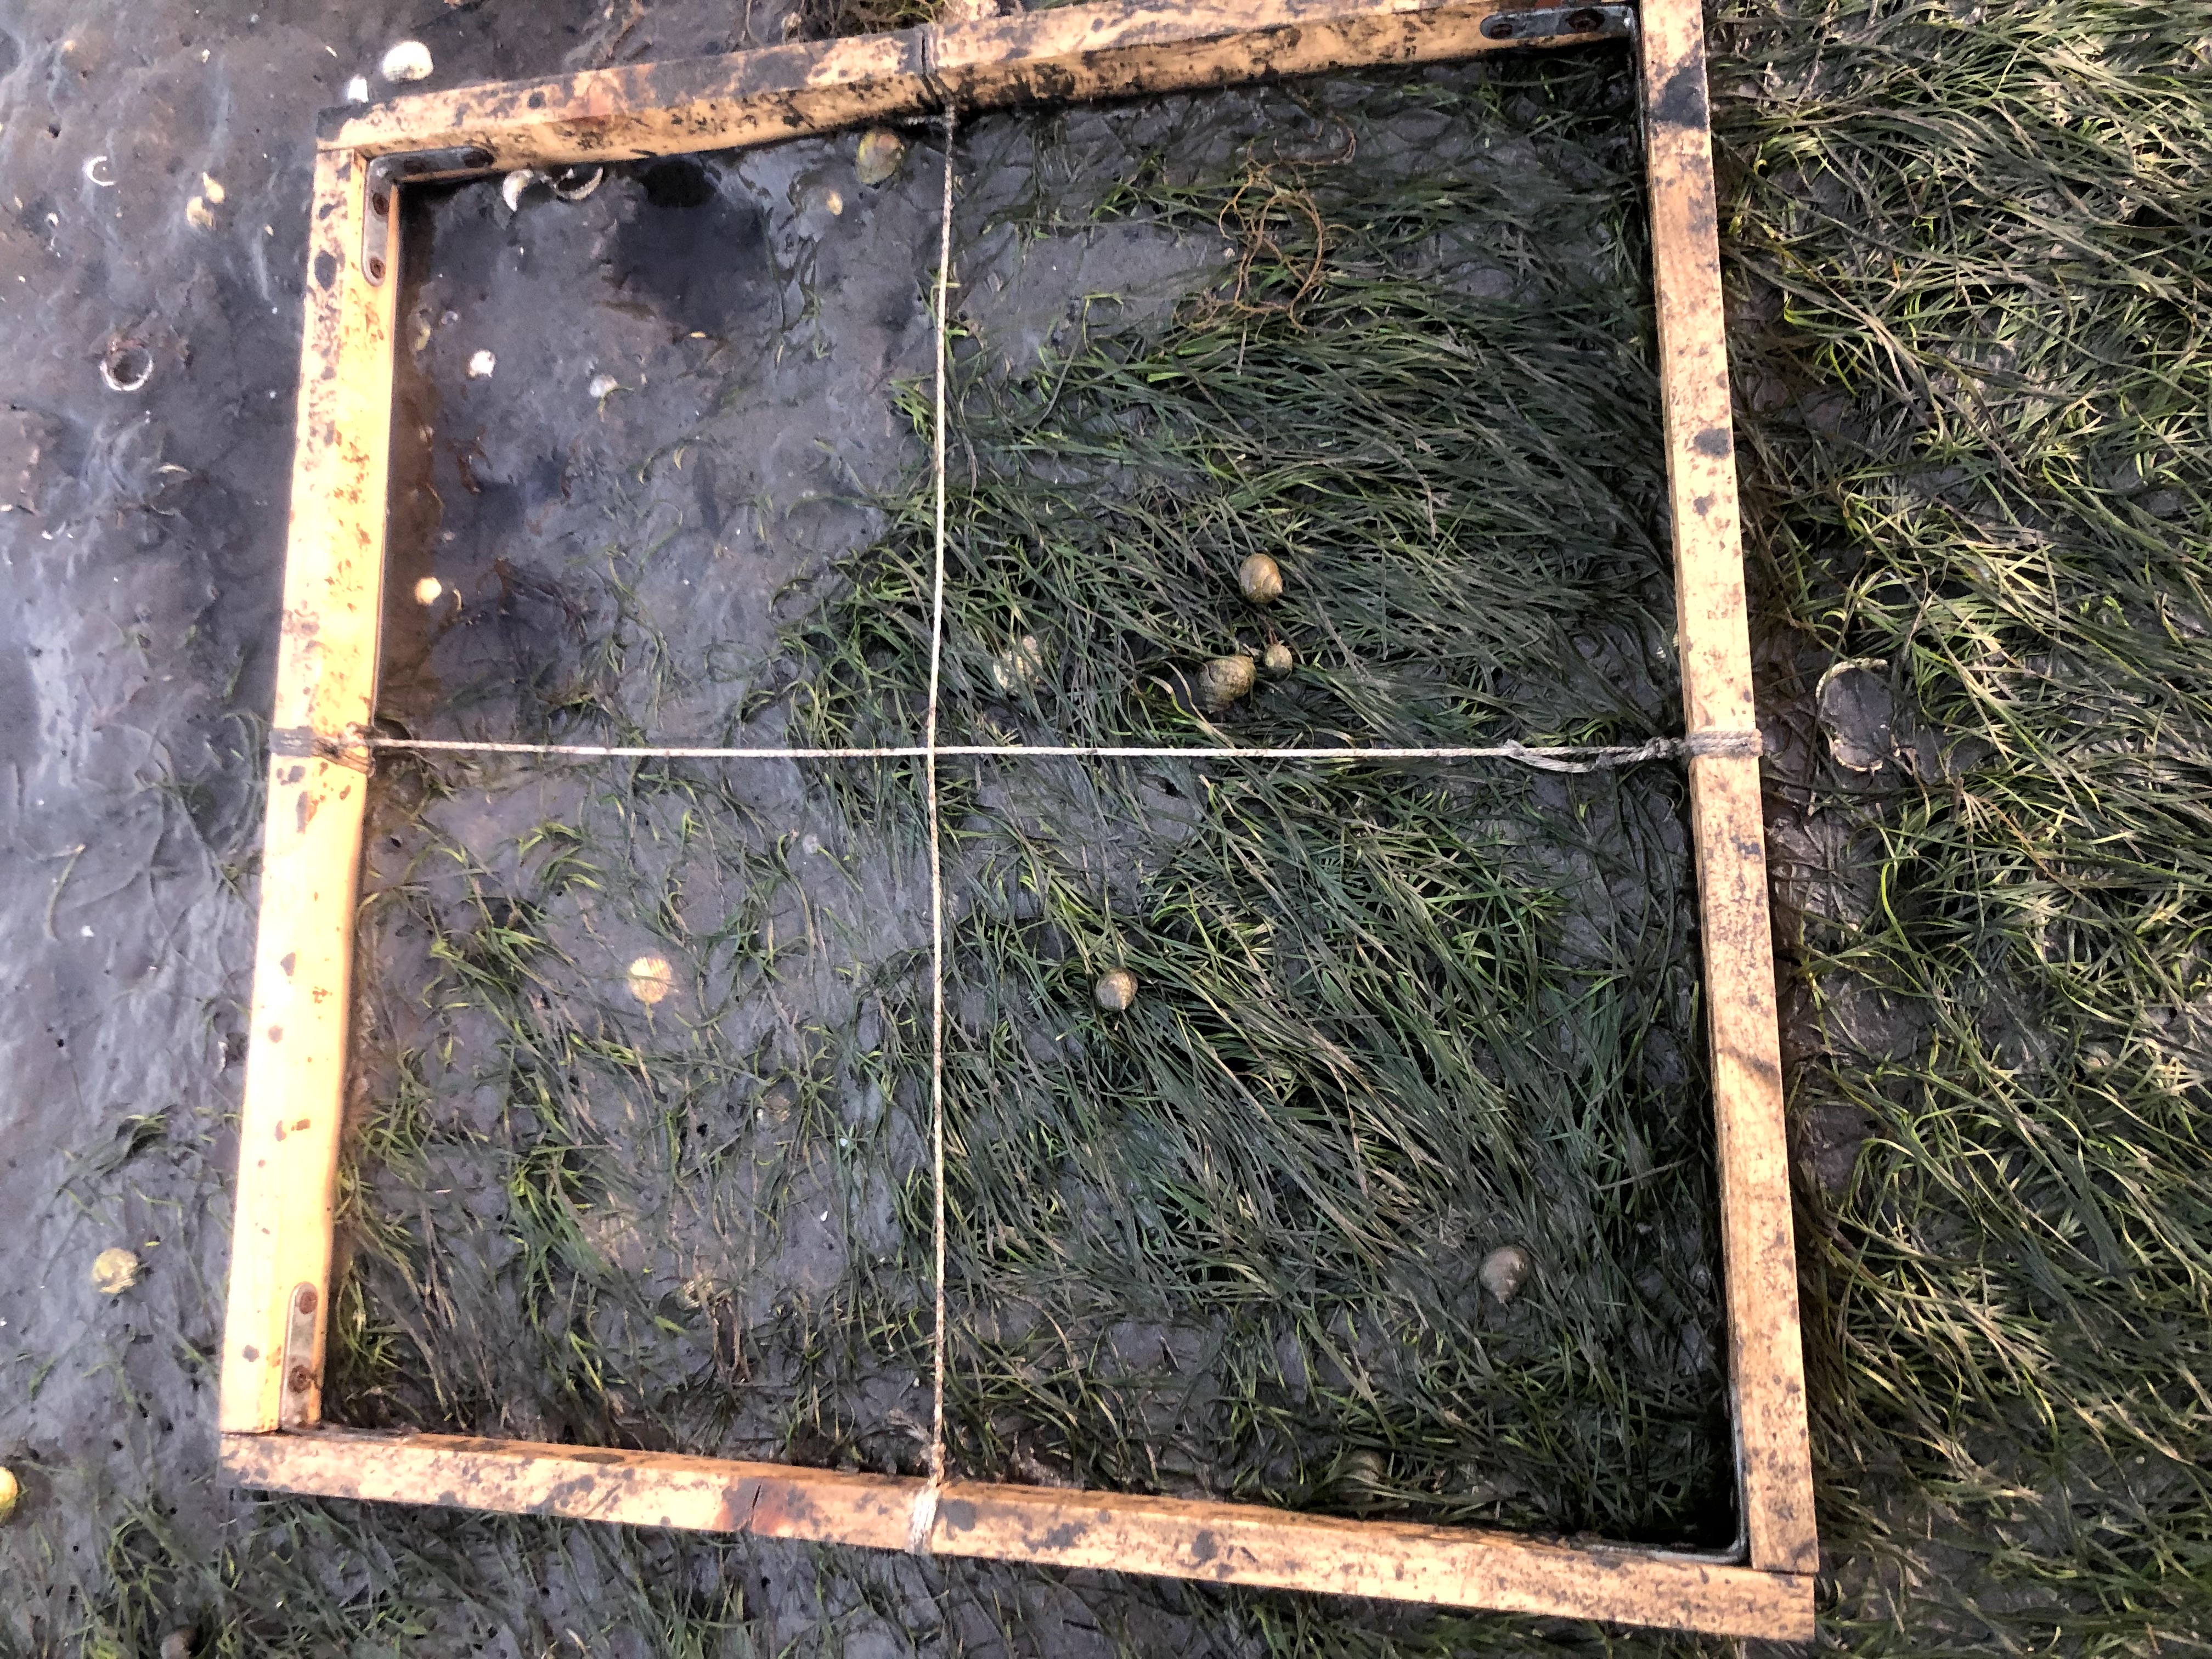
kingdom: Plantae
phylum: Tracheophyta
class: Liliopsida
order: Alismatales
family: Zosteraceae
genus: Zostera
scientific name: Zostera noltii
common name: Dwarf eelgrass
